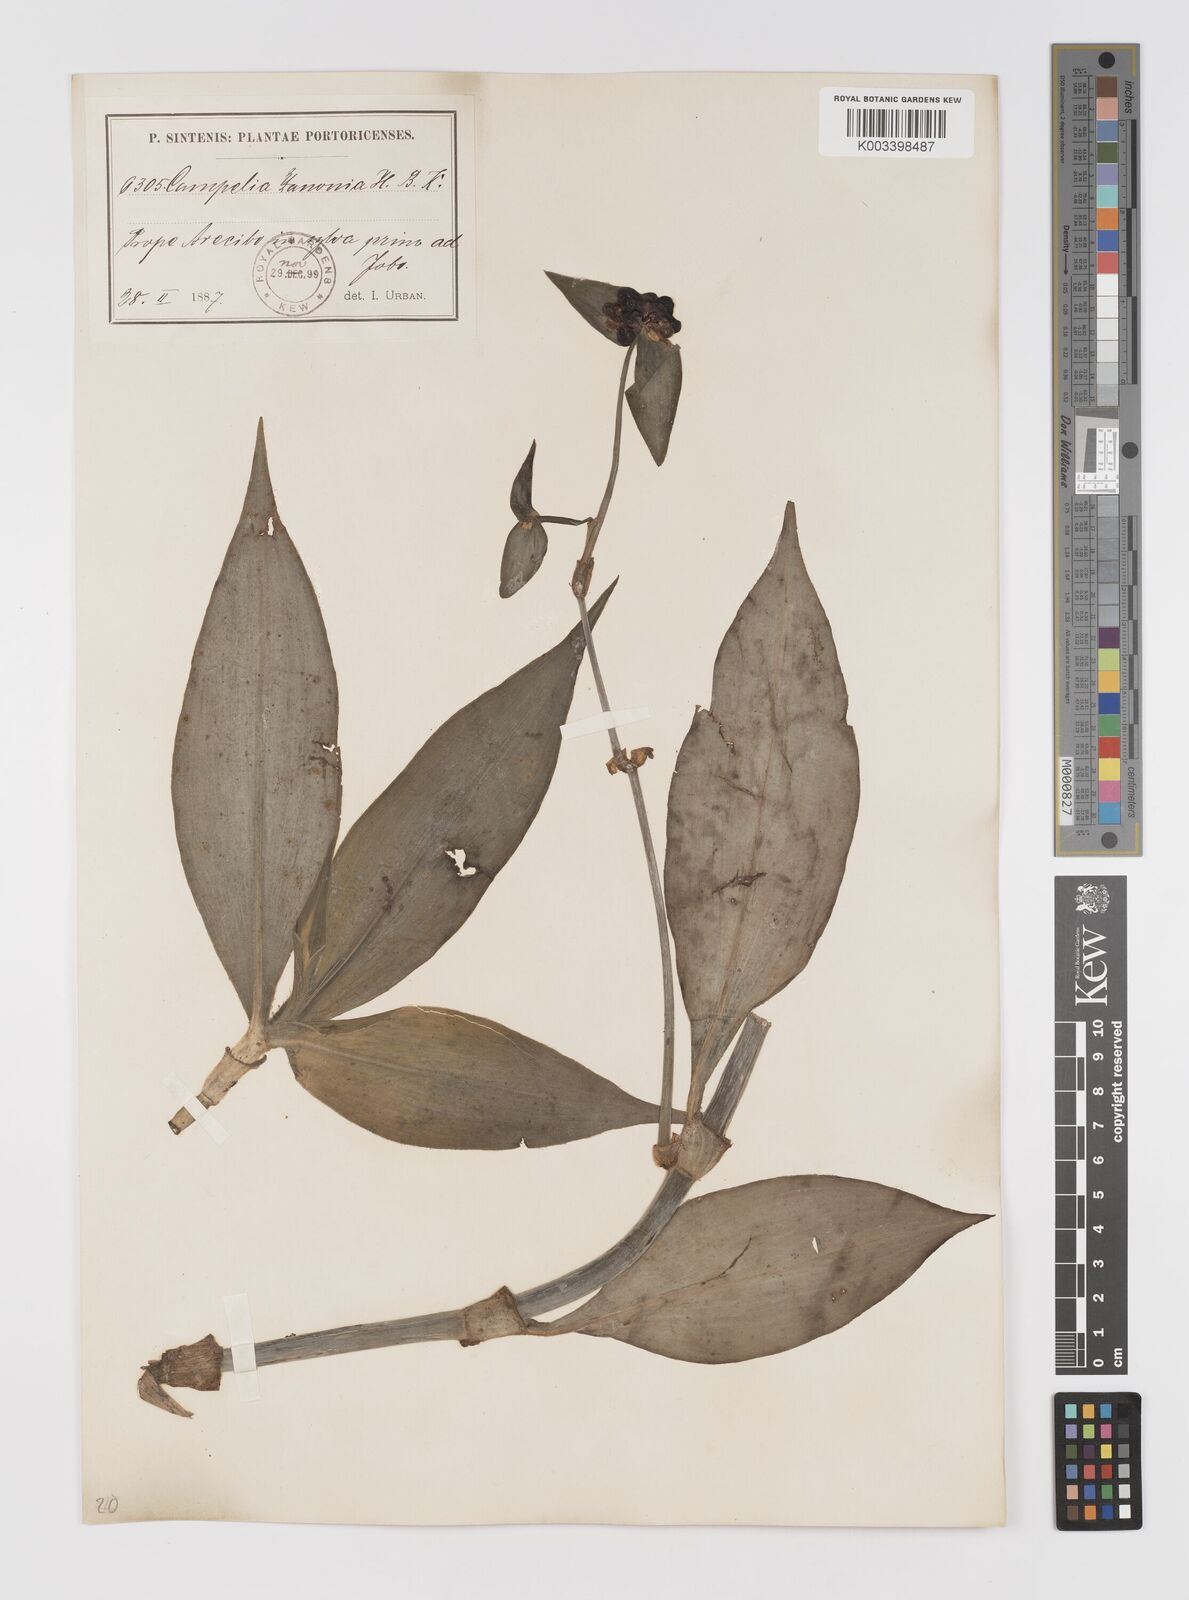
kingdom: Plantae
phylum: Tracheophyta
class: Liliopsida
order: Commelinales
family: Commelinaceae
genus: Tradescantia
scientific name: Tradescantia zanonia
